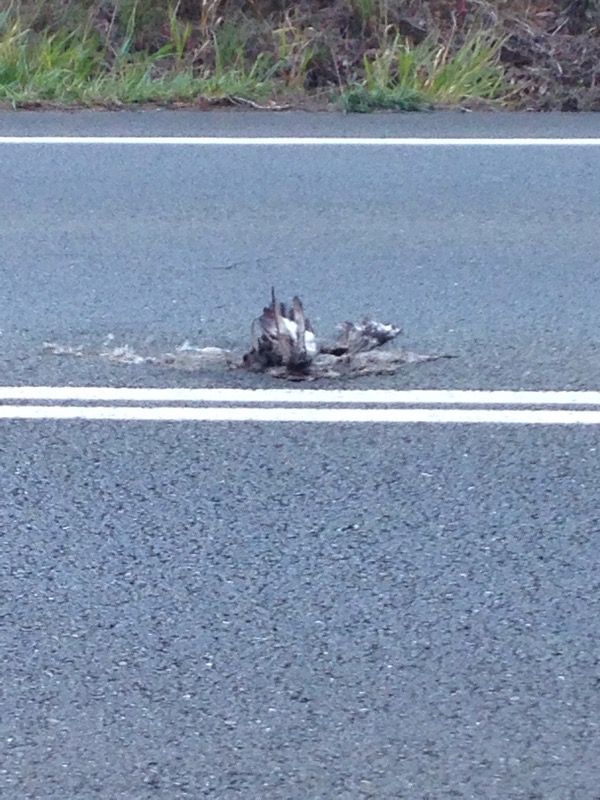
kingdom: Animalia
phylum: Chordata
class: Aves
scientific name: Aves
